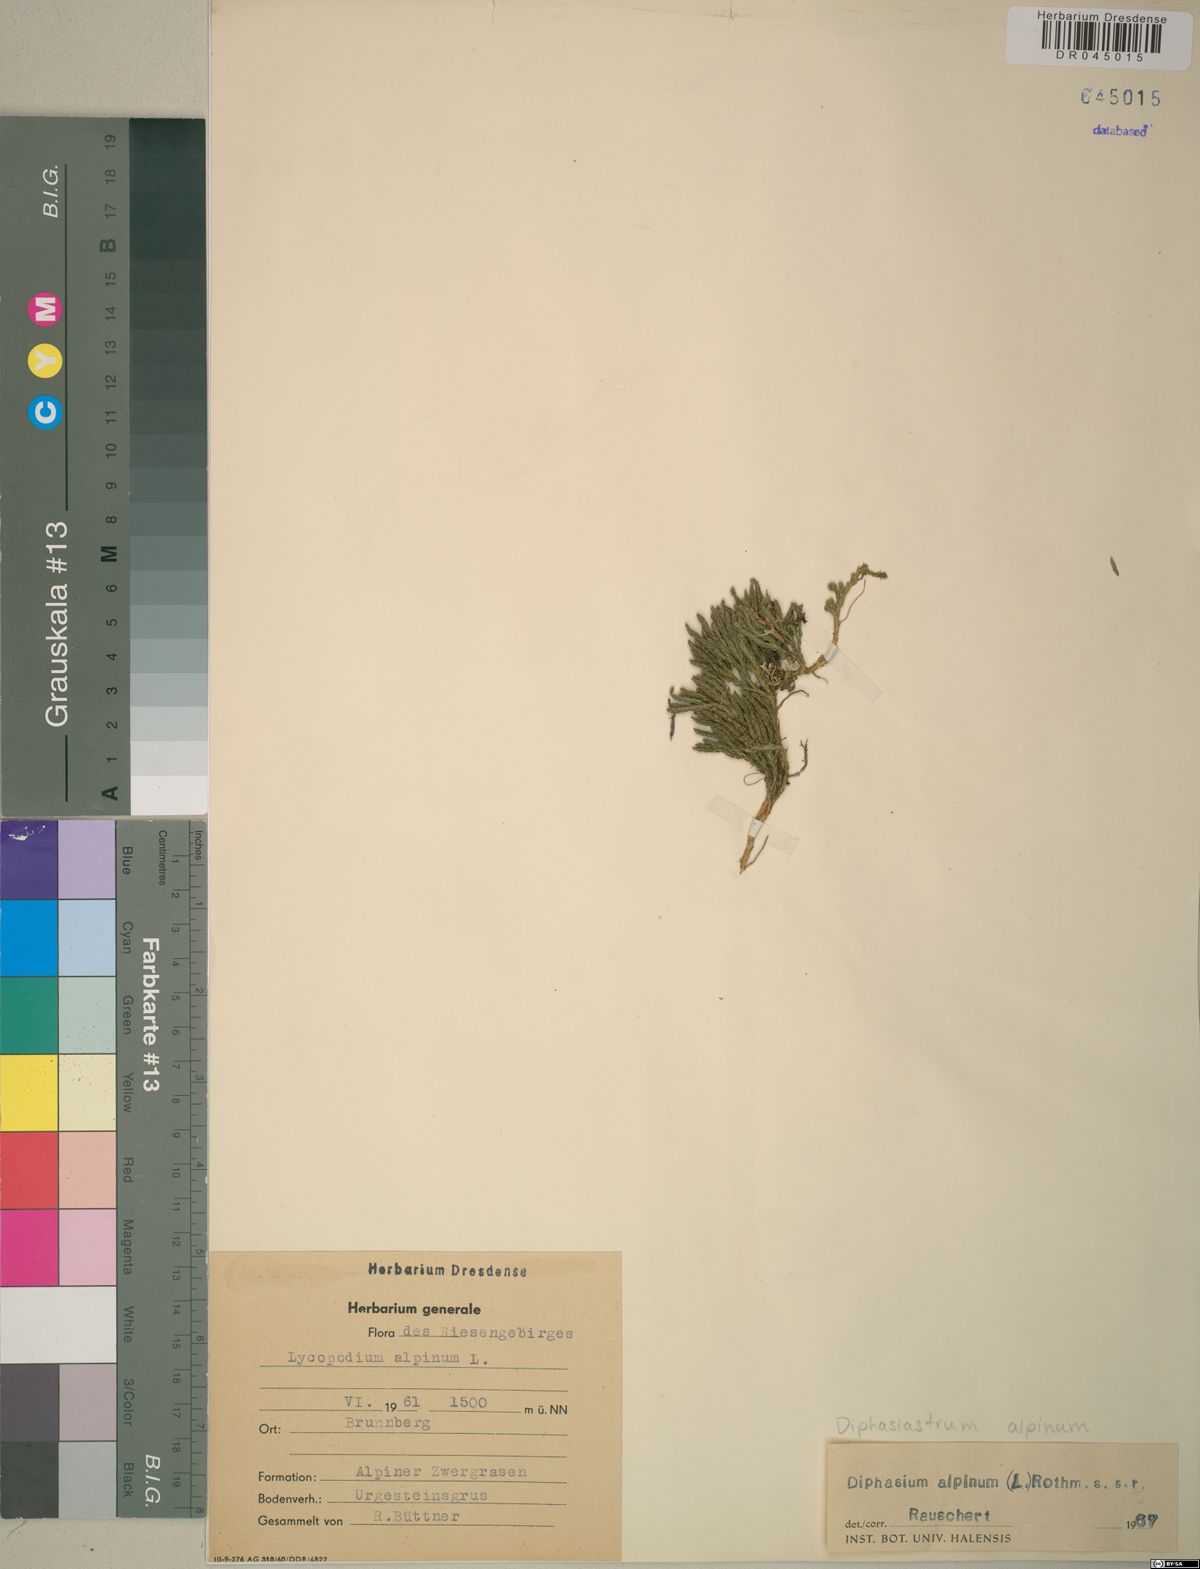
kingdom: Plantae
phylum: Tracheophyta
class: Lycopodiopsida
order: Lycopodiales
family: Lycopodiaceae
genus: Diphasiastrum
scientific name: Diphasiastrum alpinum
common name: Alpine clubmoss
